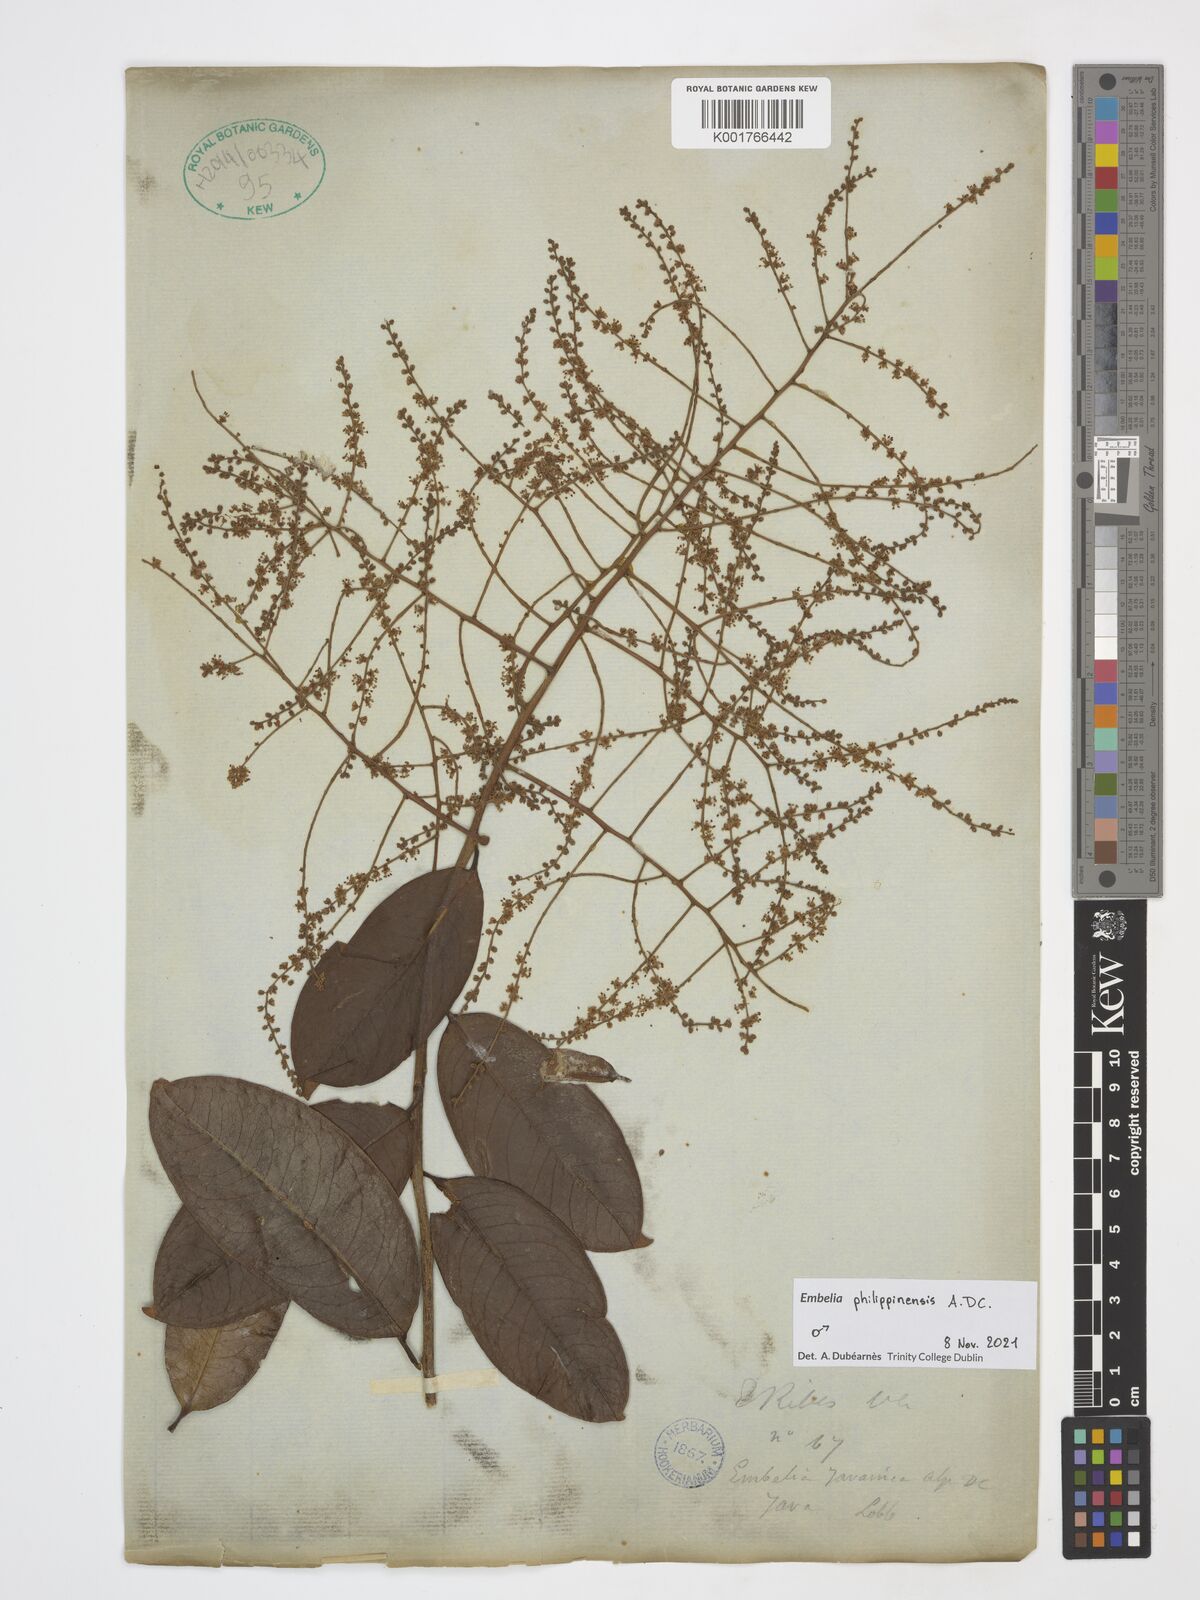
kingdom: Plantae
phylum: Tracheophyta
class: Magnoliopsida
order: Ericales
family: Primulaceae
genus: Embelia
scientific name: Embelia philippinensis
